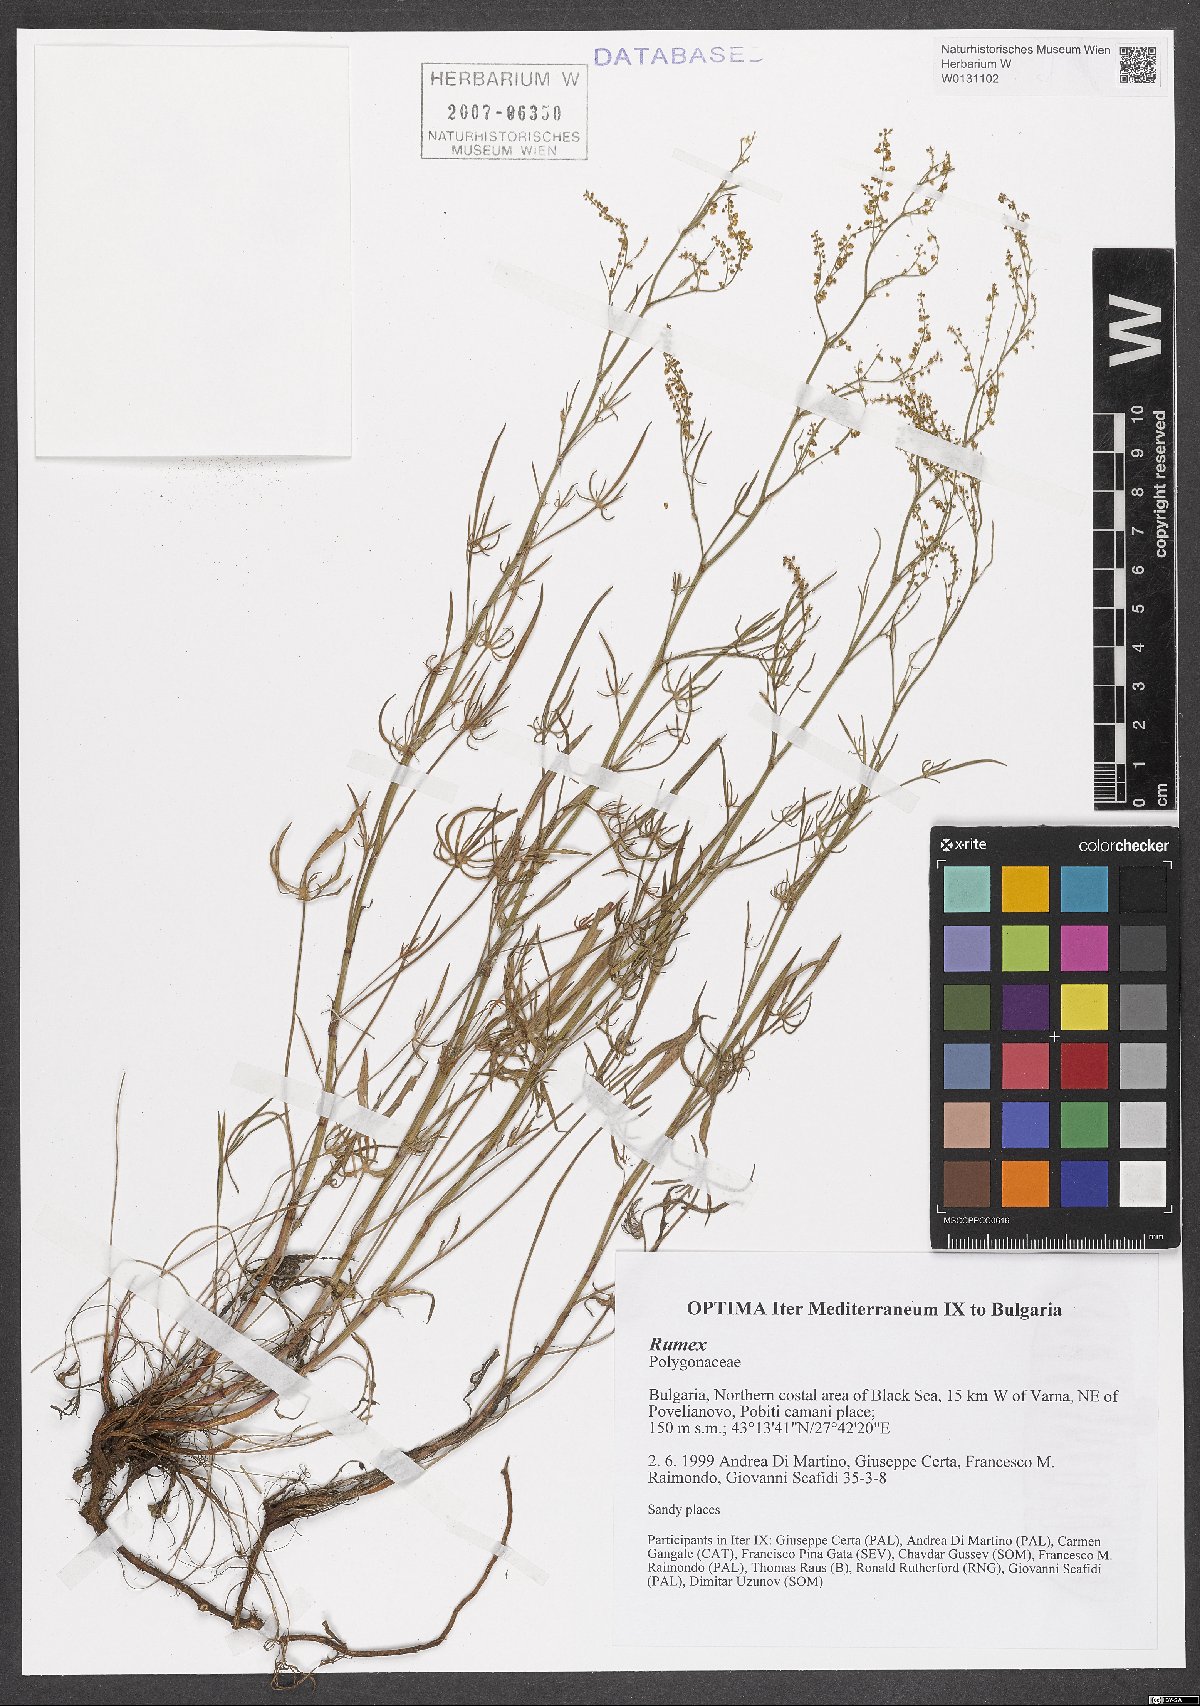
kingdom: Plantae
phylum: Tracheophyta
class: Magnoliopsida
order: Caryophyllales
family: Polygonaceae
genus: Rumex
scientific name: Rumex
